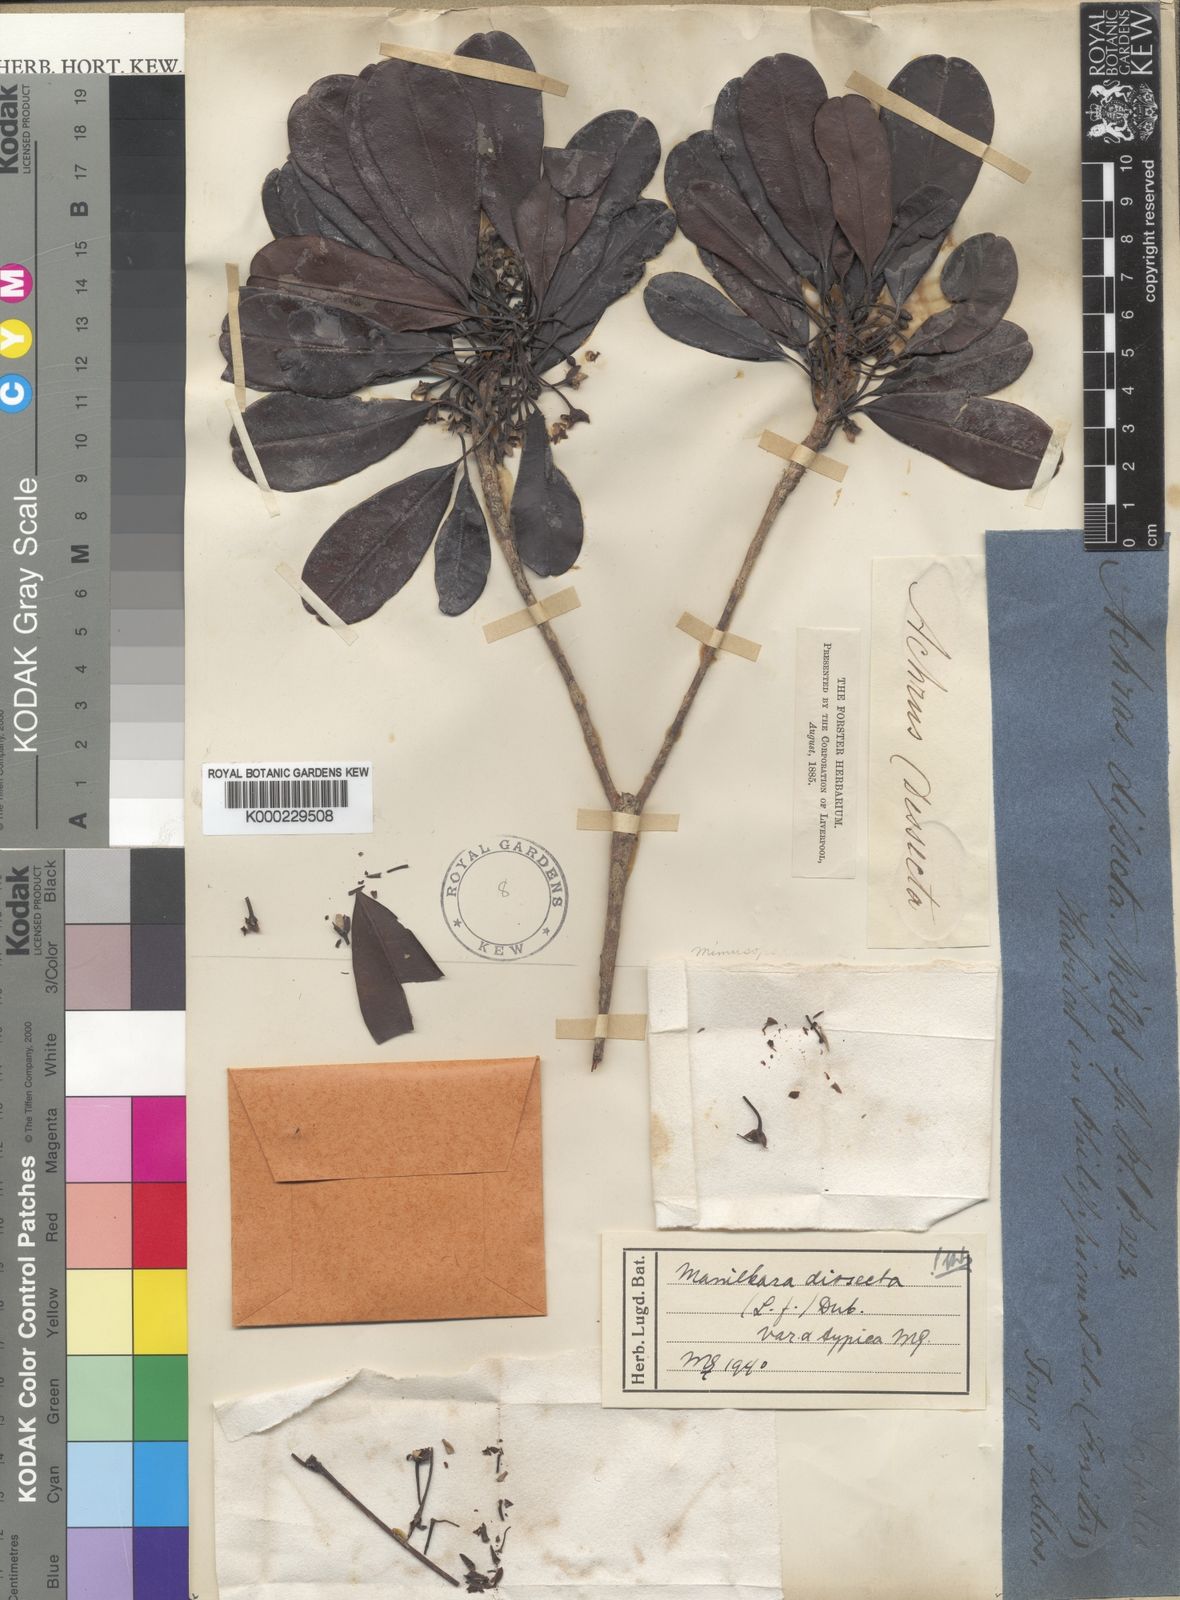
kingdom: Plantae
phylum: Tracheophyta
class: Magnoliopsida
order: Ericales
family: Sapotaceae
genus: Manilkara
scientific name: Manilkara dissecta
